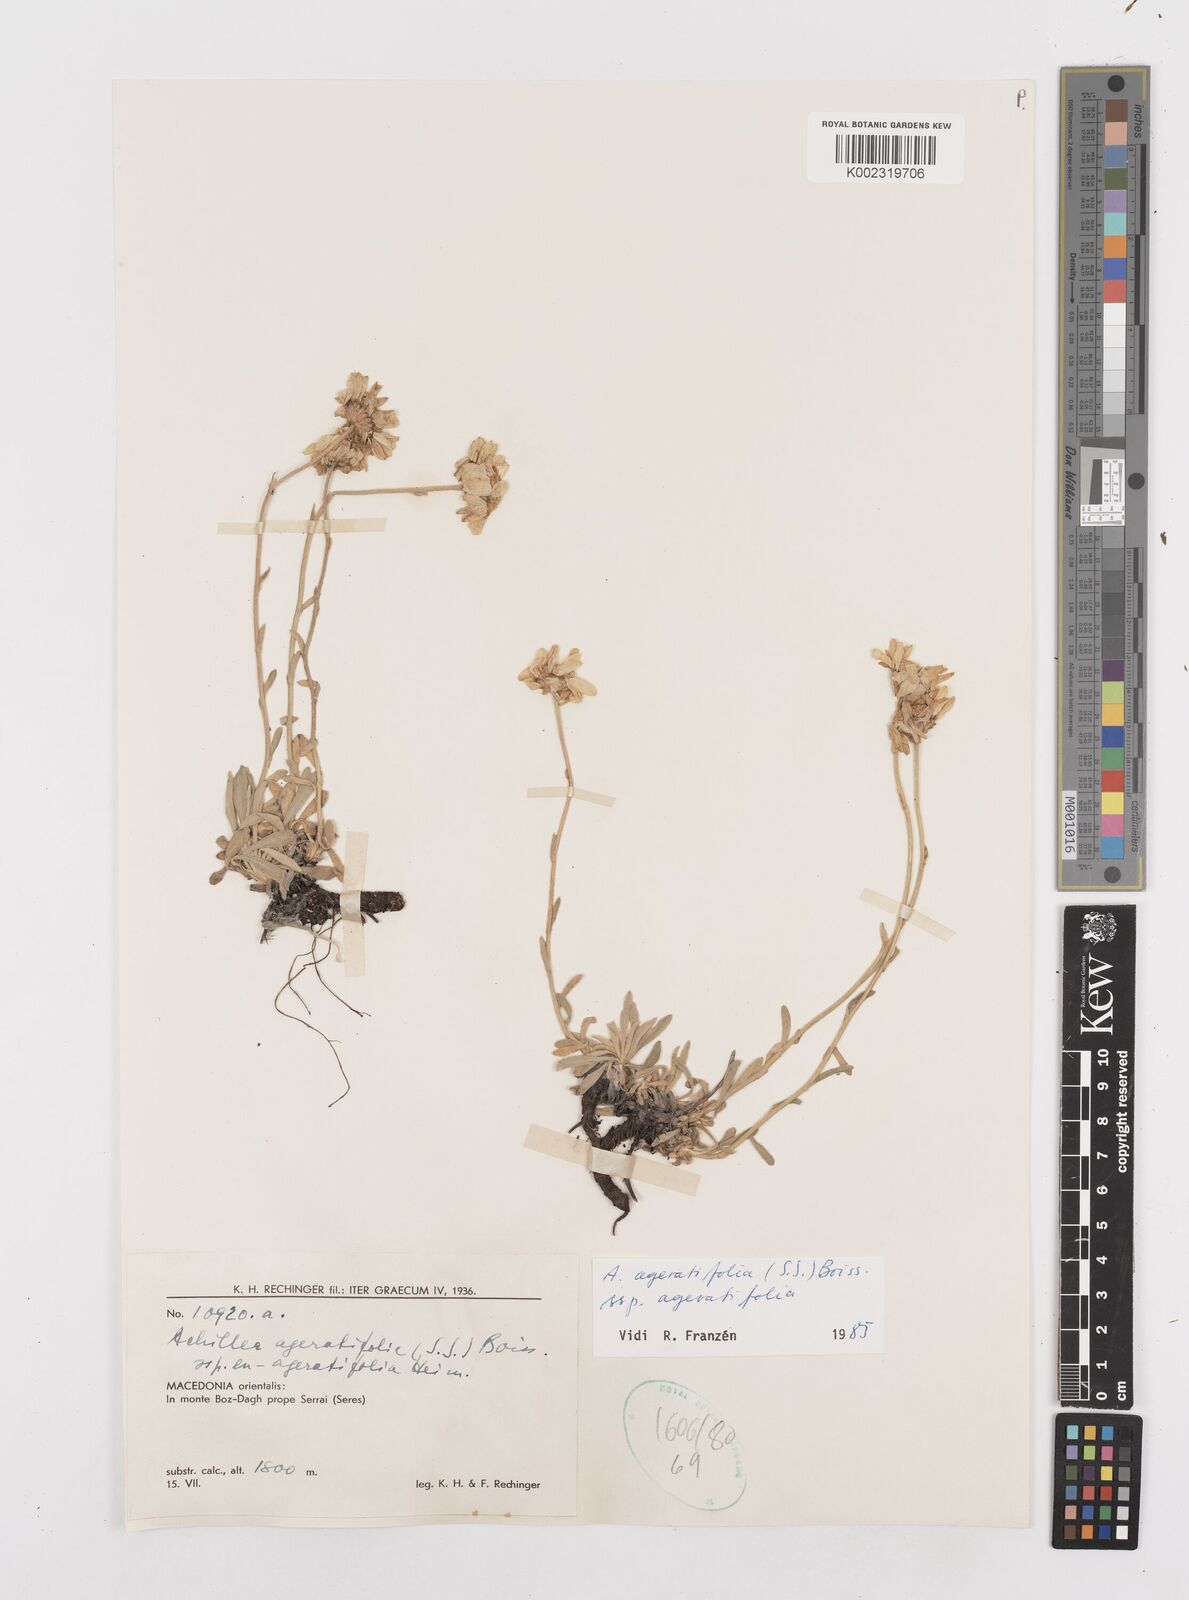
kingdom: Plantae
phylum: Tracheophyta
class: Magnoliopsida
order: Asterales
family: Asteraceae
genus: Achillea
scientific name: Achillea ageratifolia
